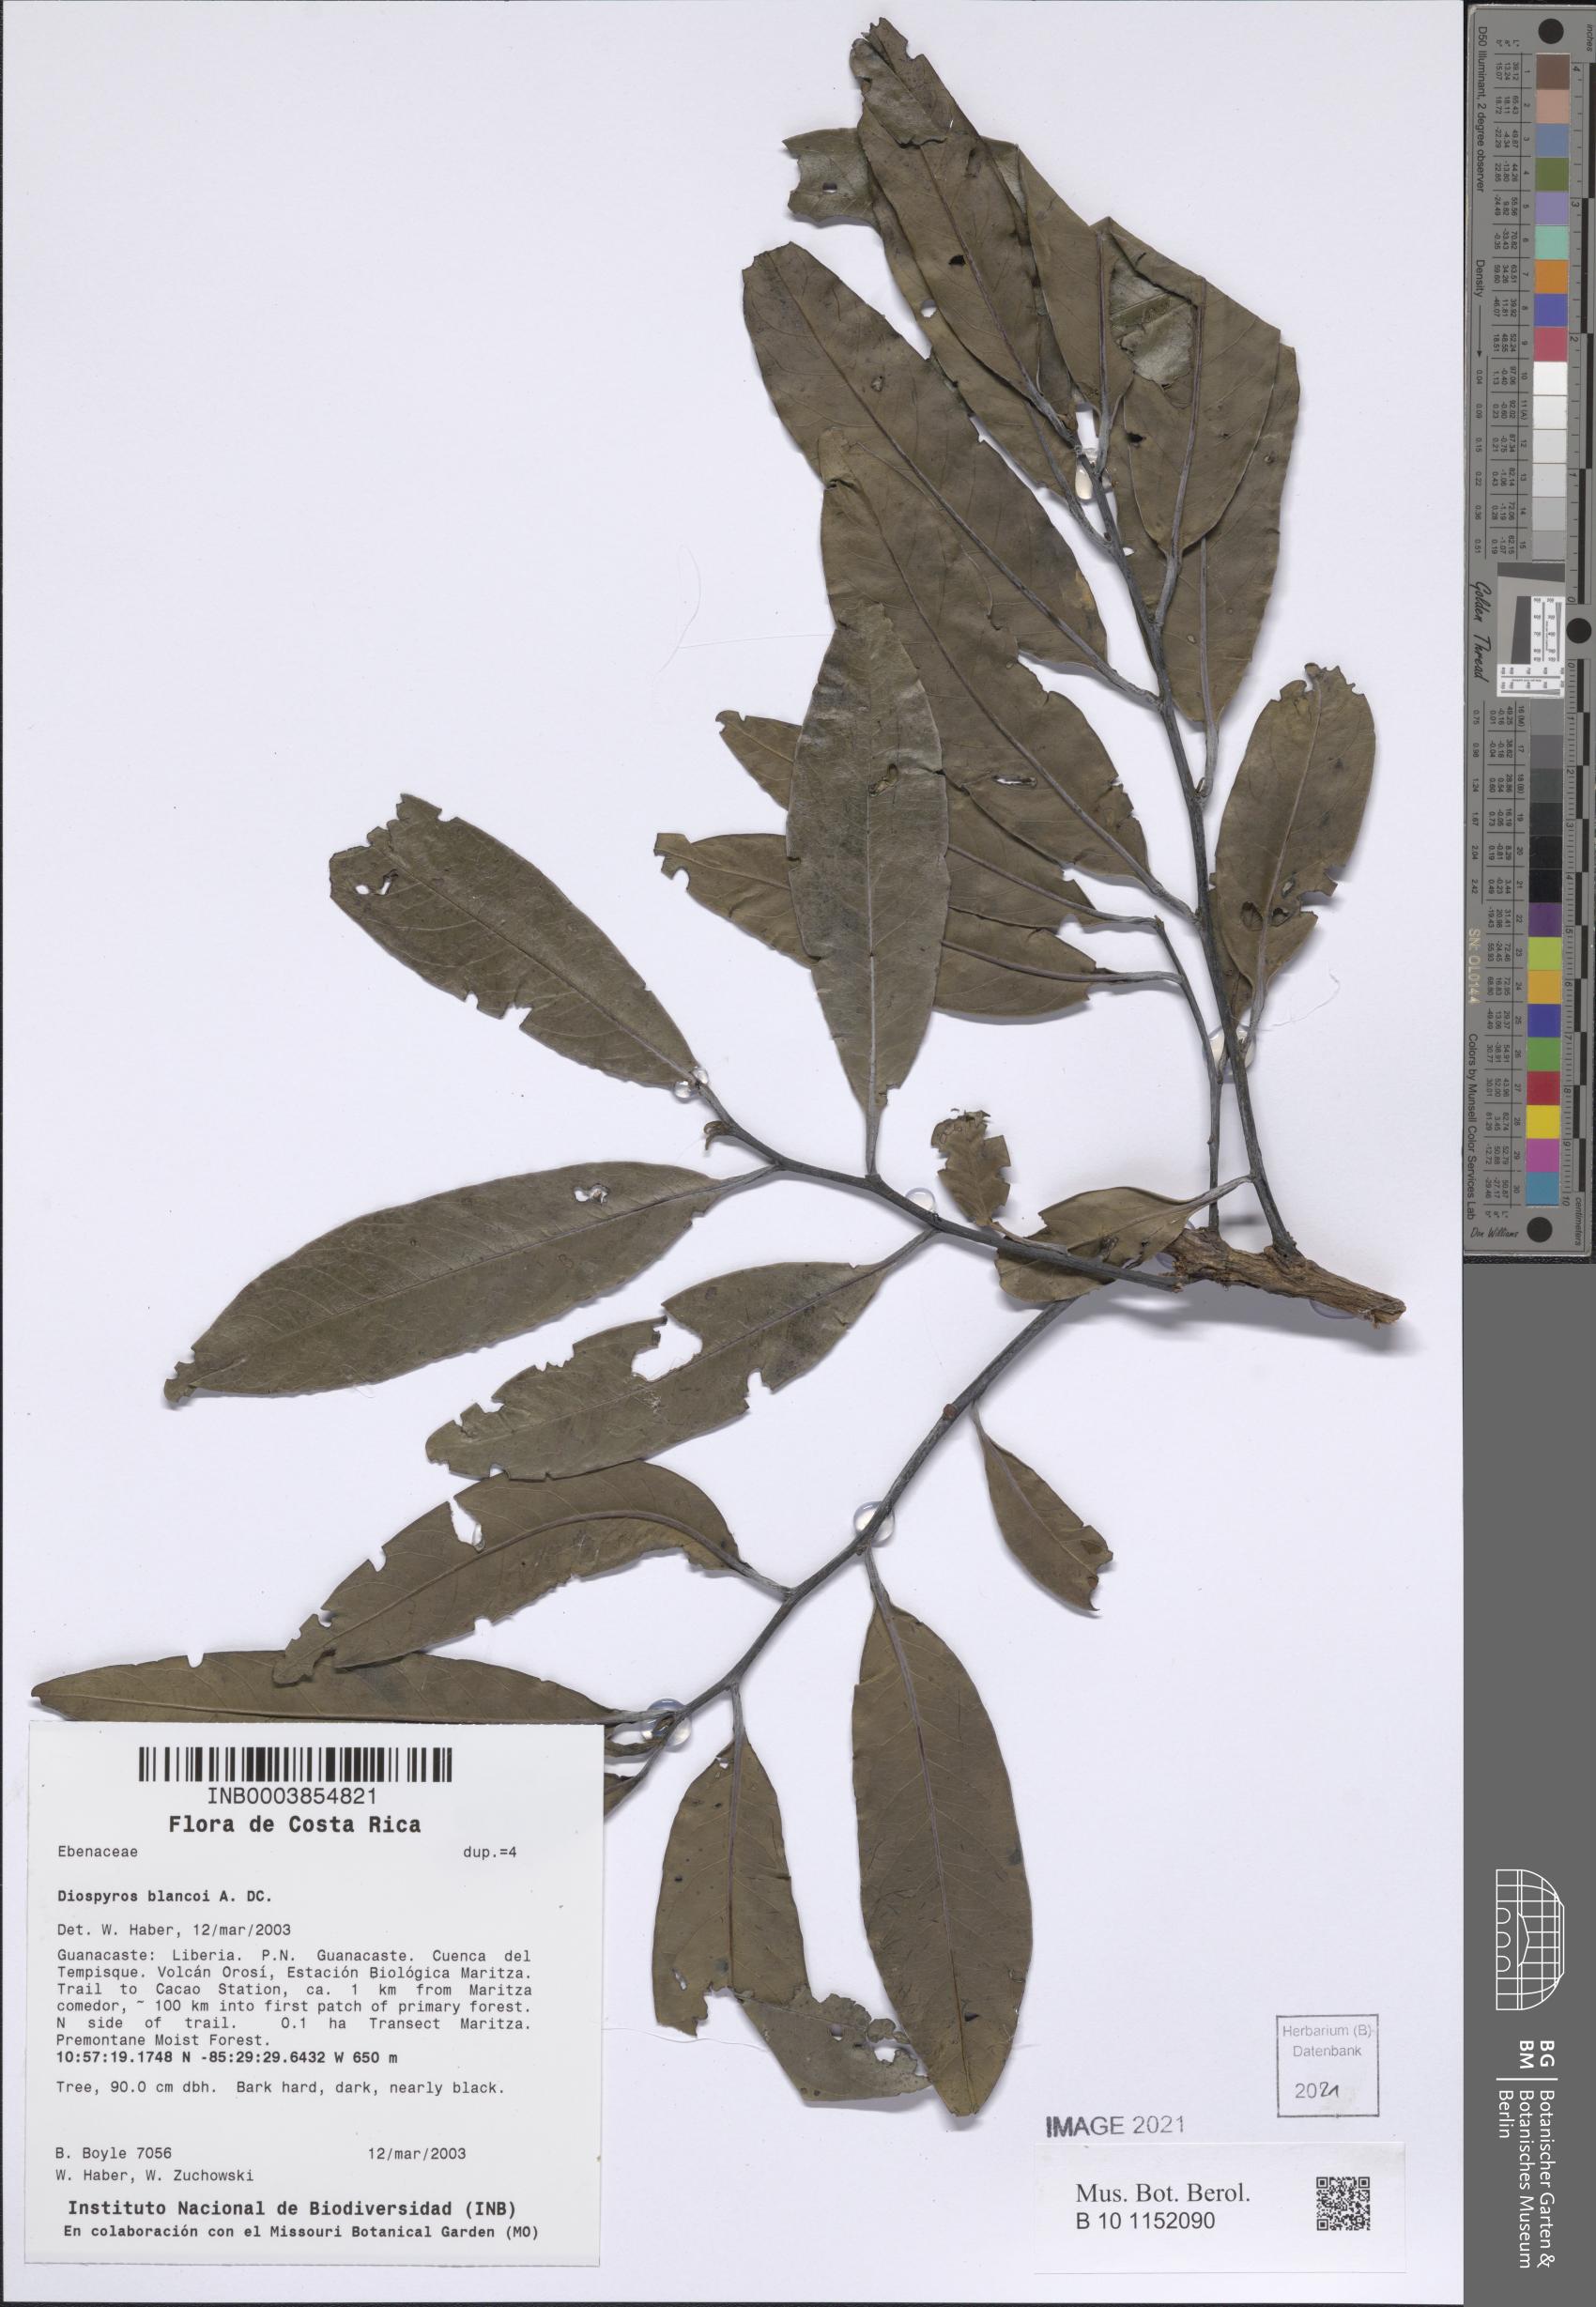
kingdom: Plantae
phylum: Tracheophyta
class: Magnoliopsida
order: Ericales
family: Ebenaceae
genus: Diospyros
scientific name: Diospyros nigra
